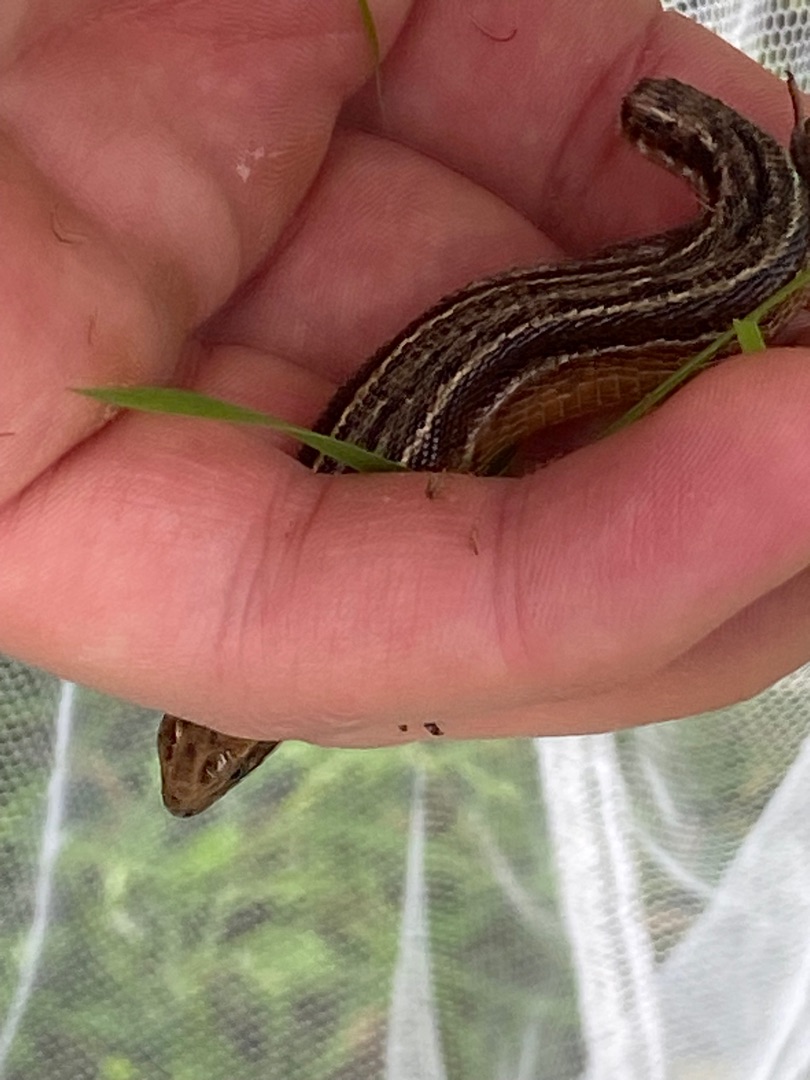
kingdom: Animalia
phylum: Chordata
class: Squamata
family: Lacertidae
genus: Zootoca
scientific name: Zootoca vivipara
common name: Skovfirben
